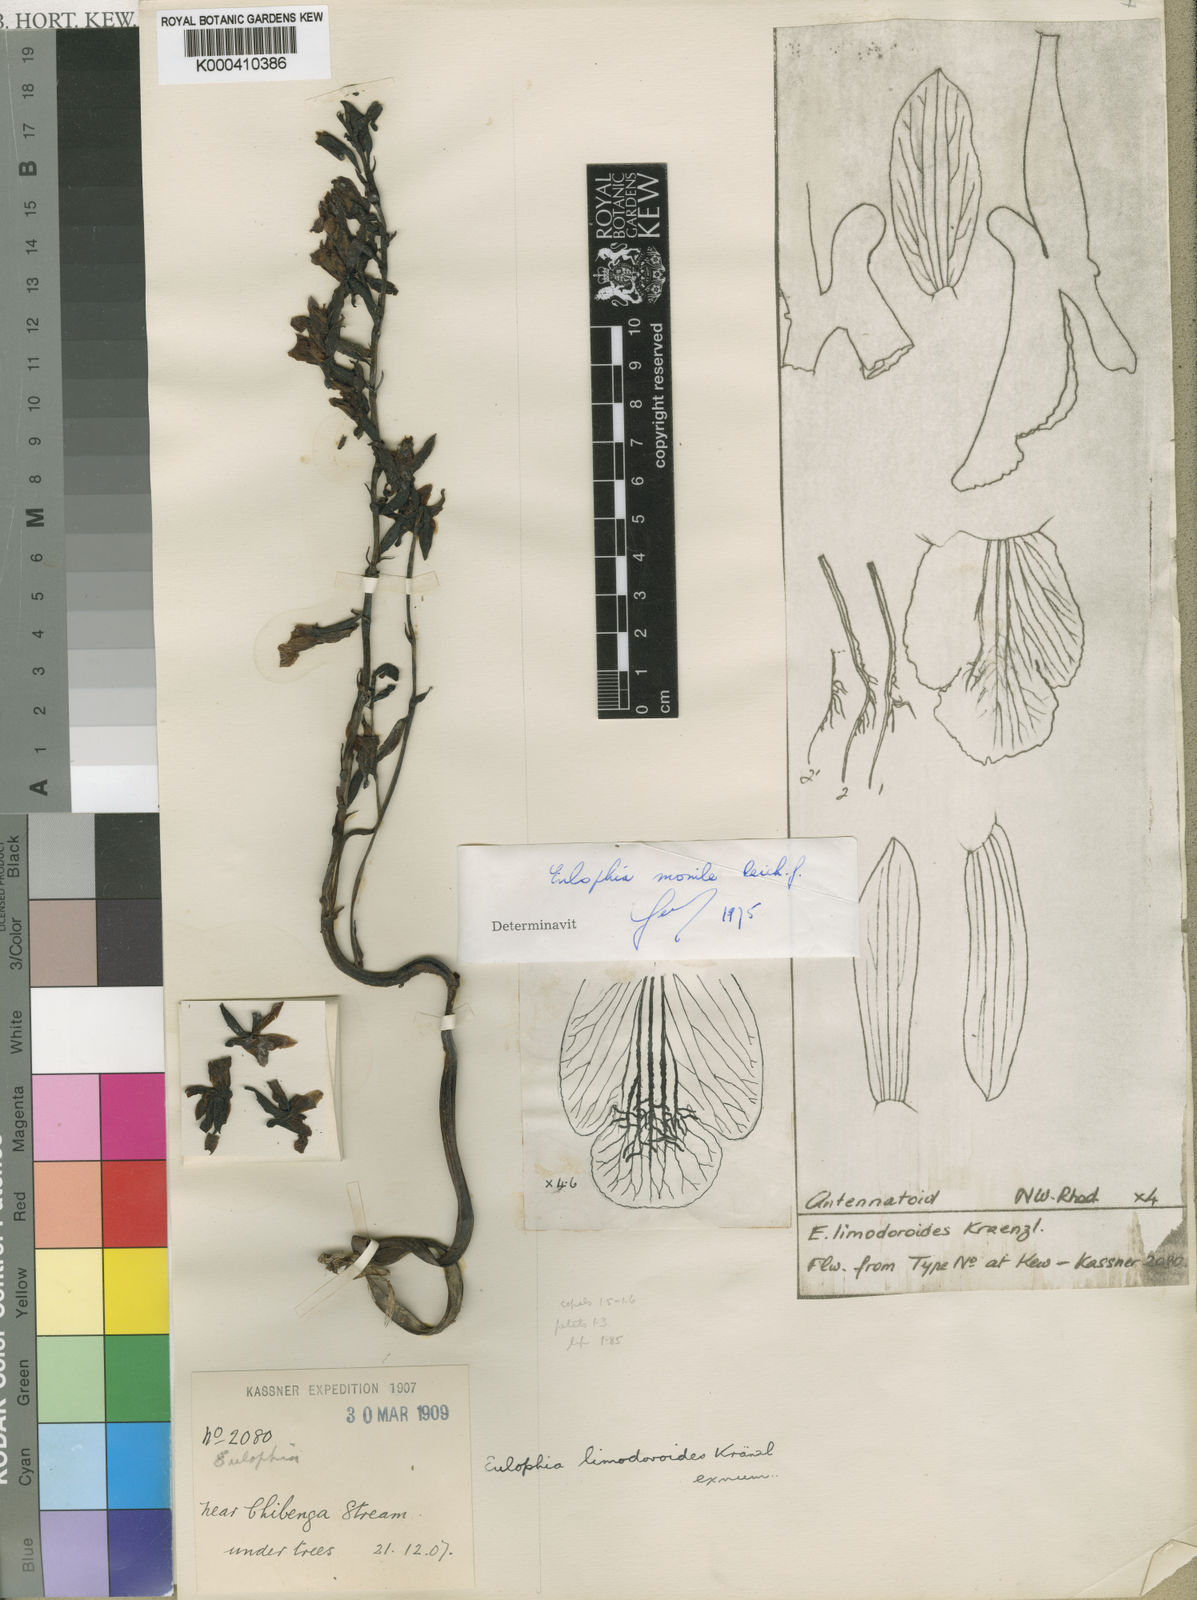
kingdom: Plantae
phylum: Tracheophyta
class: Liliopsida
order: Asparagales
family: Orchidaceae
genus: Eulophia
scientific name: Eulophia nyasae
